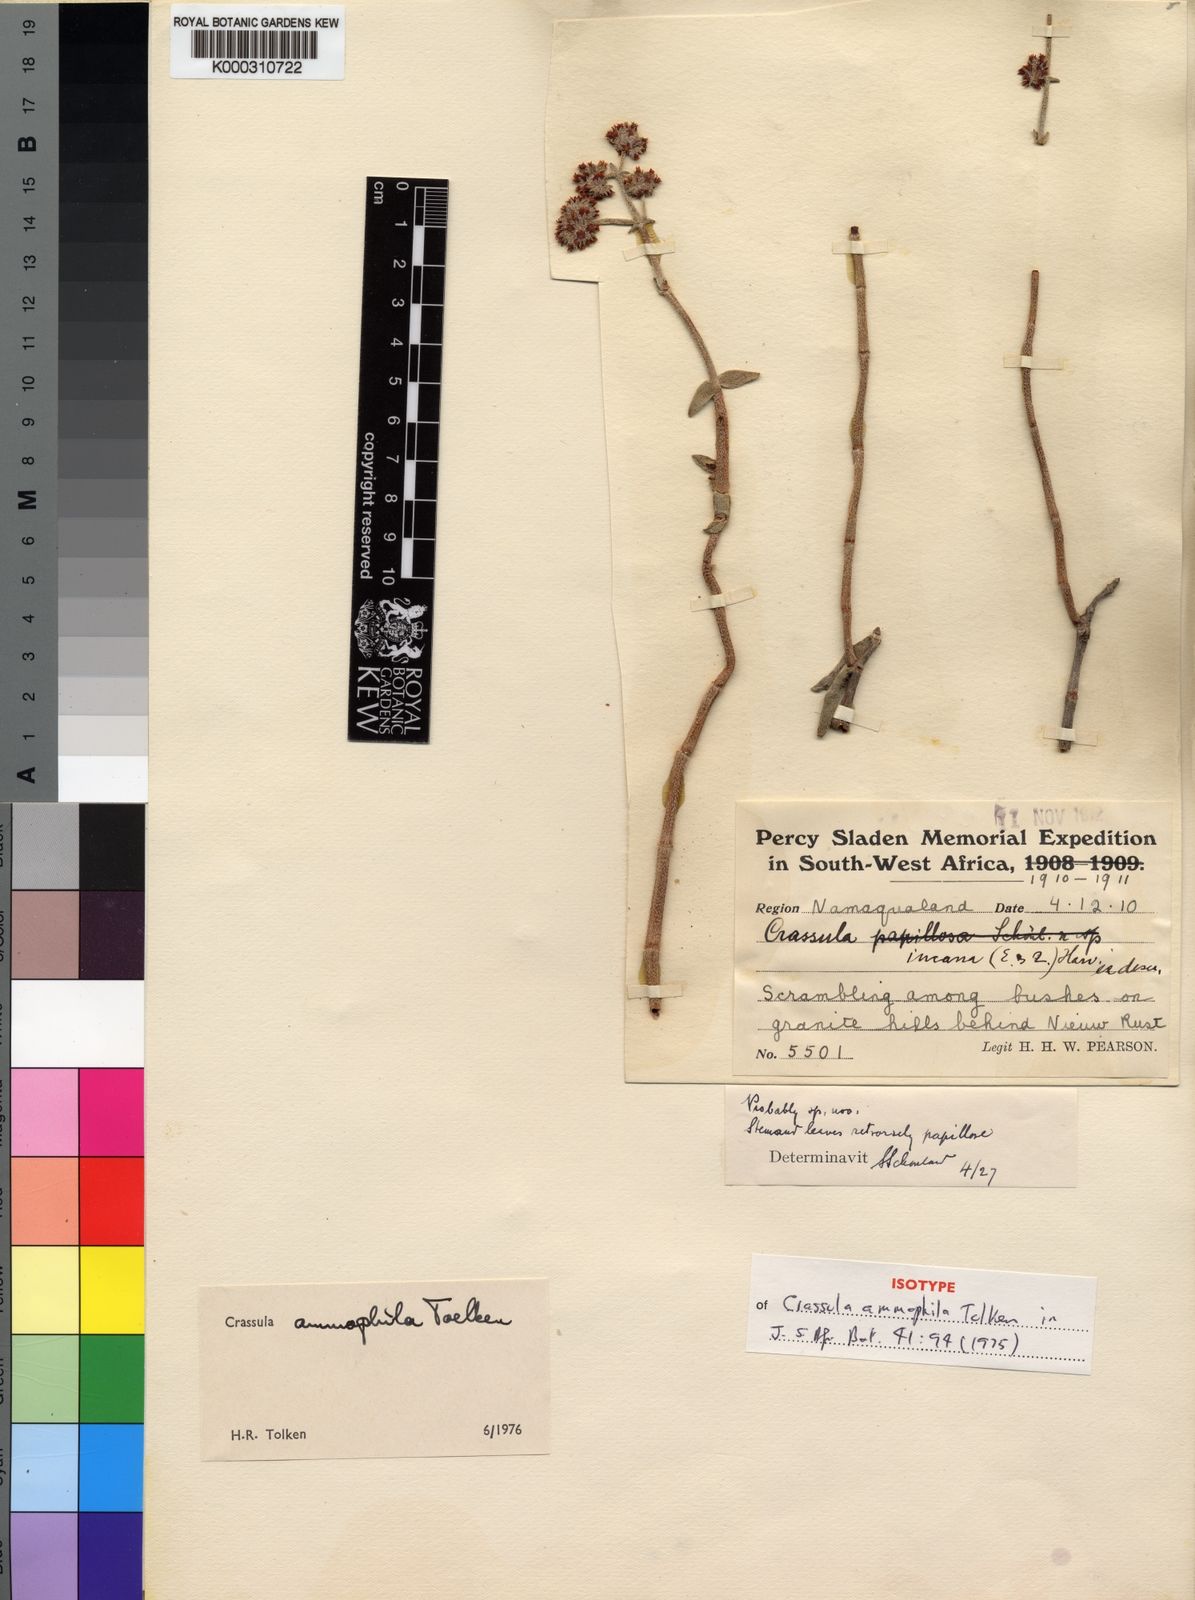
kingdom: Plantae
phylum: Tracheophyta
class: Magnoliopsida
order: Saxifragales
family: Crassulaceae
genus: Crassula
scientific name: Crassula ammophila
